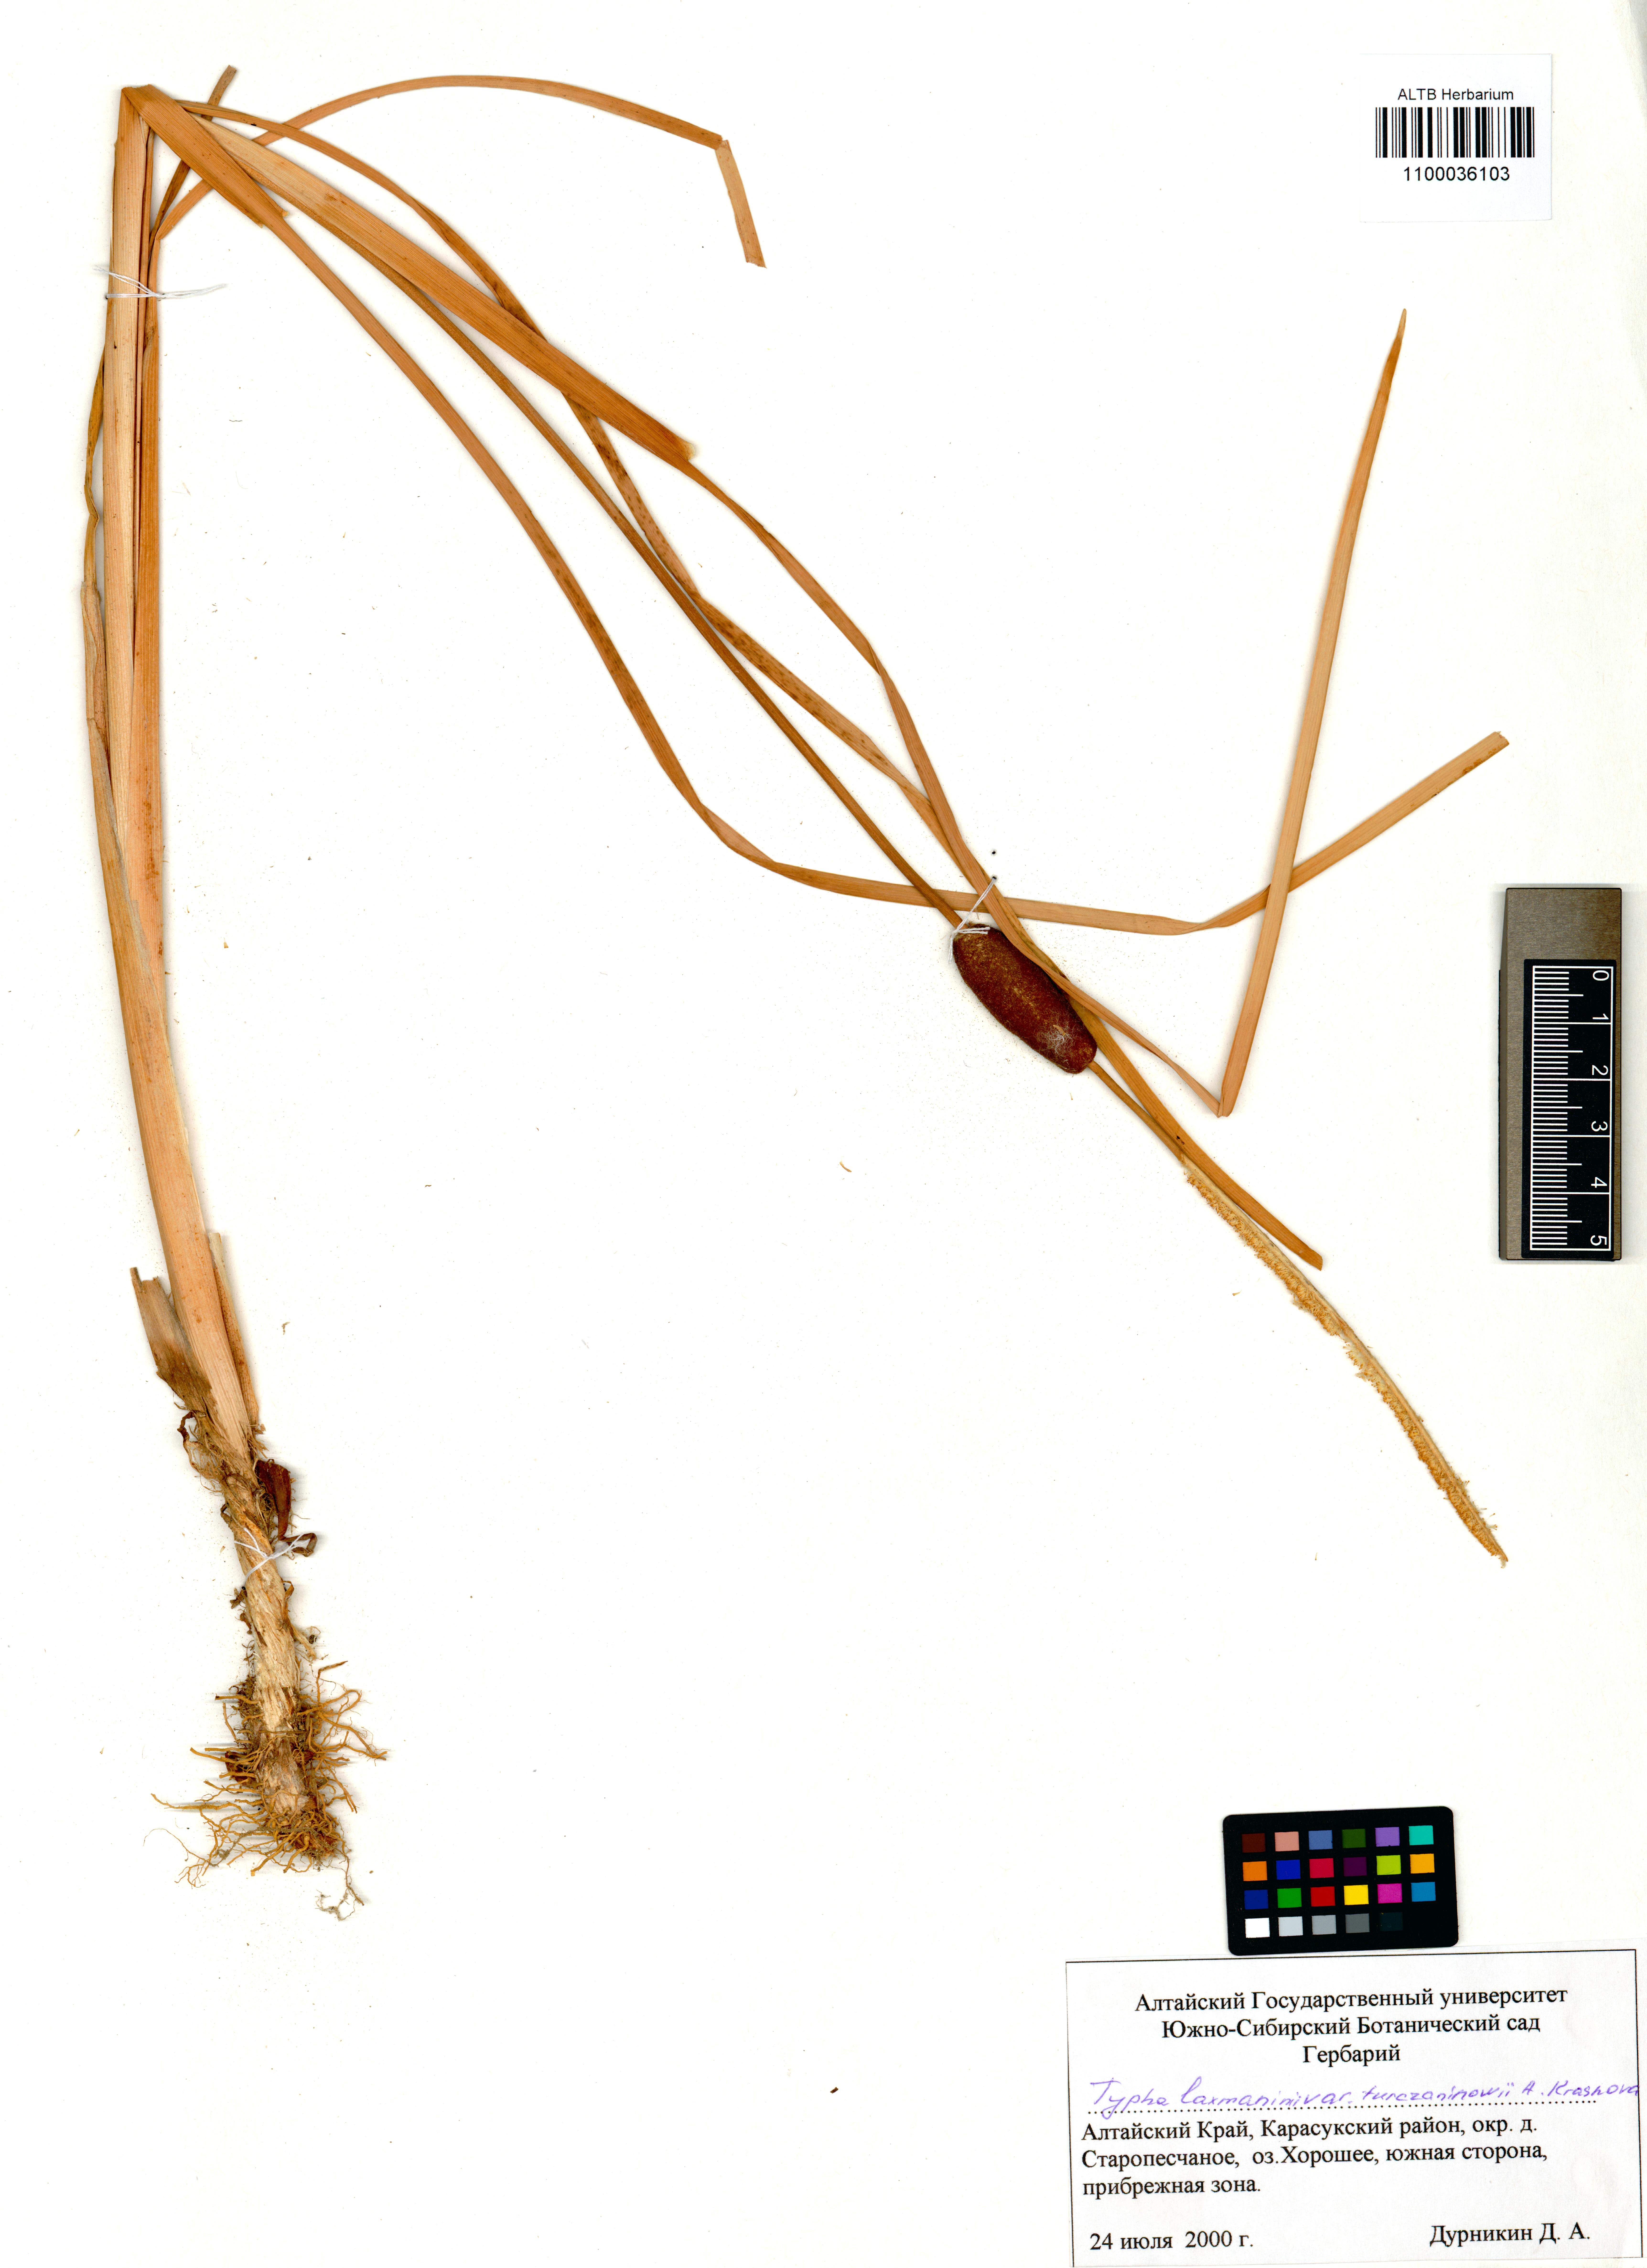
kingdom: Plantae
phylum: Tracheophyta
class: Liliopsida
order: Poales
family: Typhaceae
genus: Typha
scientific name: Typha laxmannii
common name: Laxman’s bulrush
